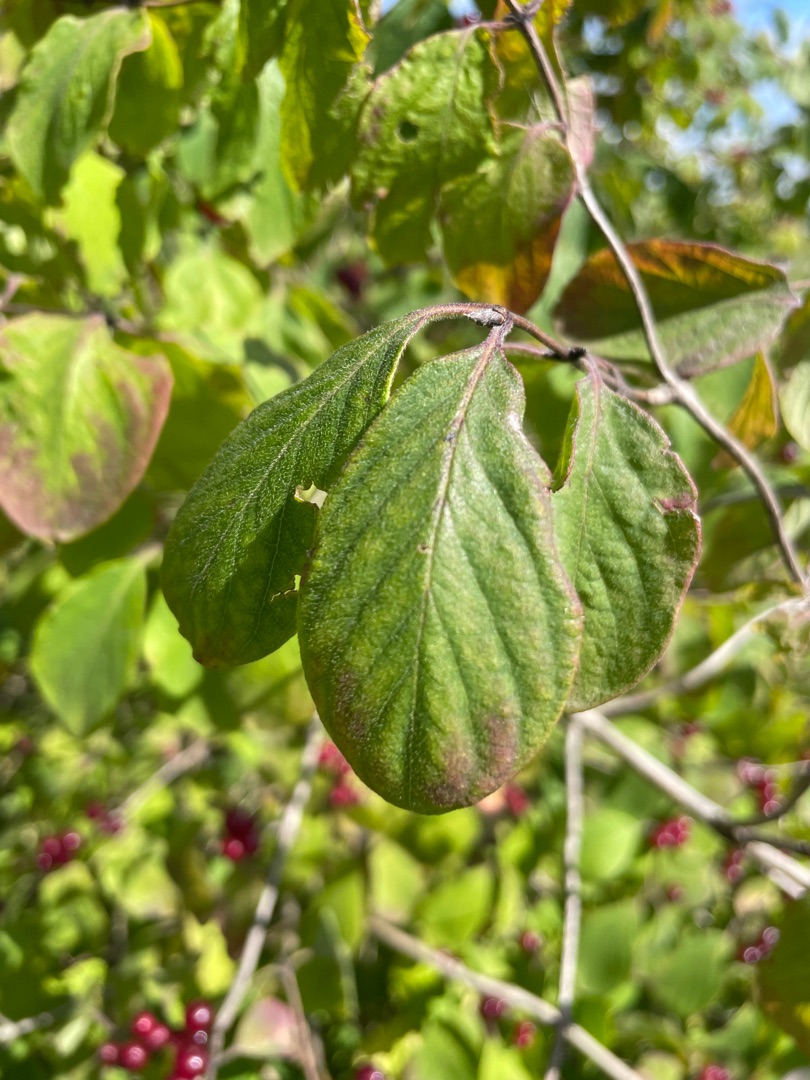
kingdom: Plantae
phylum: Tracheophyta
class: Magnoliopsida
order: Dipsacales
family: Caprifoliaceae
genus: Lonicera
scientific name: Lonicera xylosteum
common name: Dunet gedeblad
